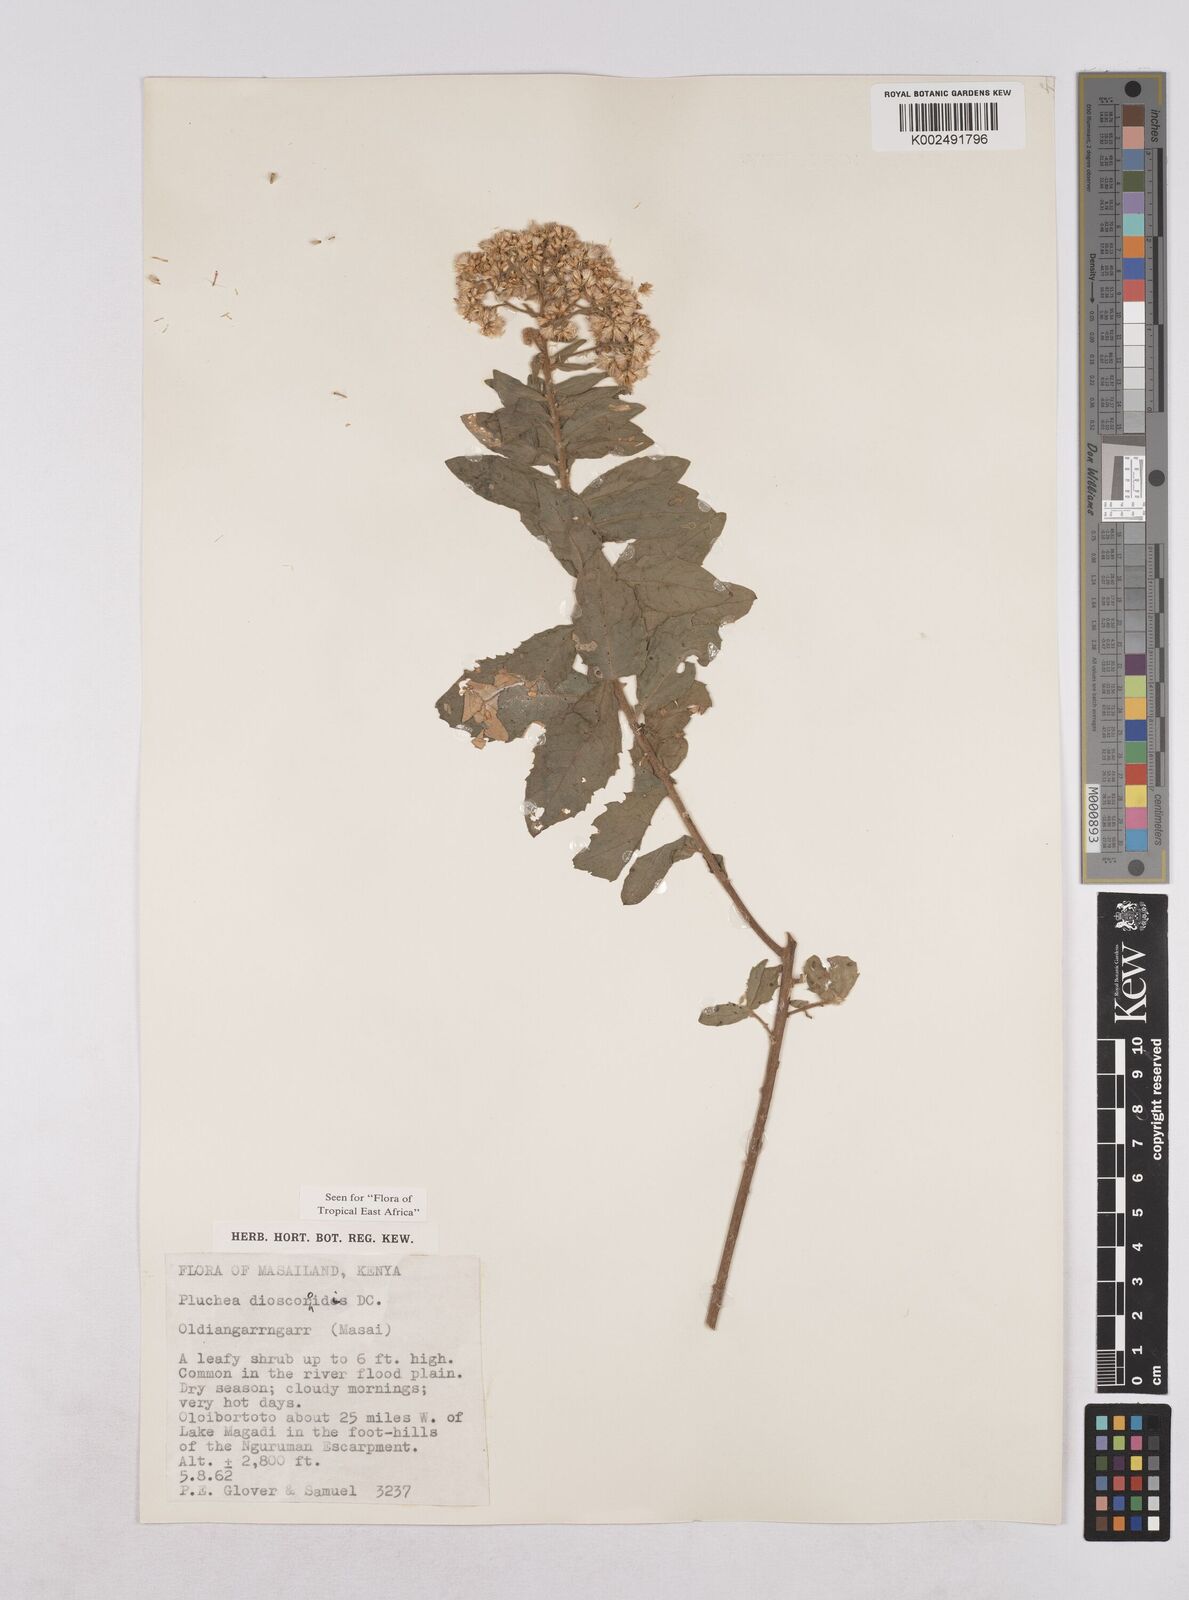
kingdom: Plantae
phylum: Tracheophyta
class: Magnoliopsida
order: Asterales
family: Asteraceae
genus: Pluchea
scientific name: Pluchea dioscoridis
